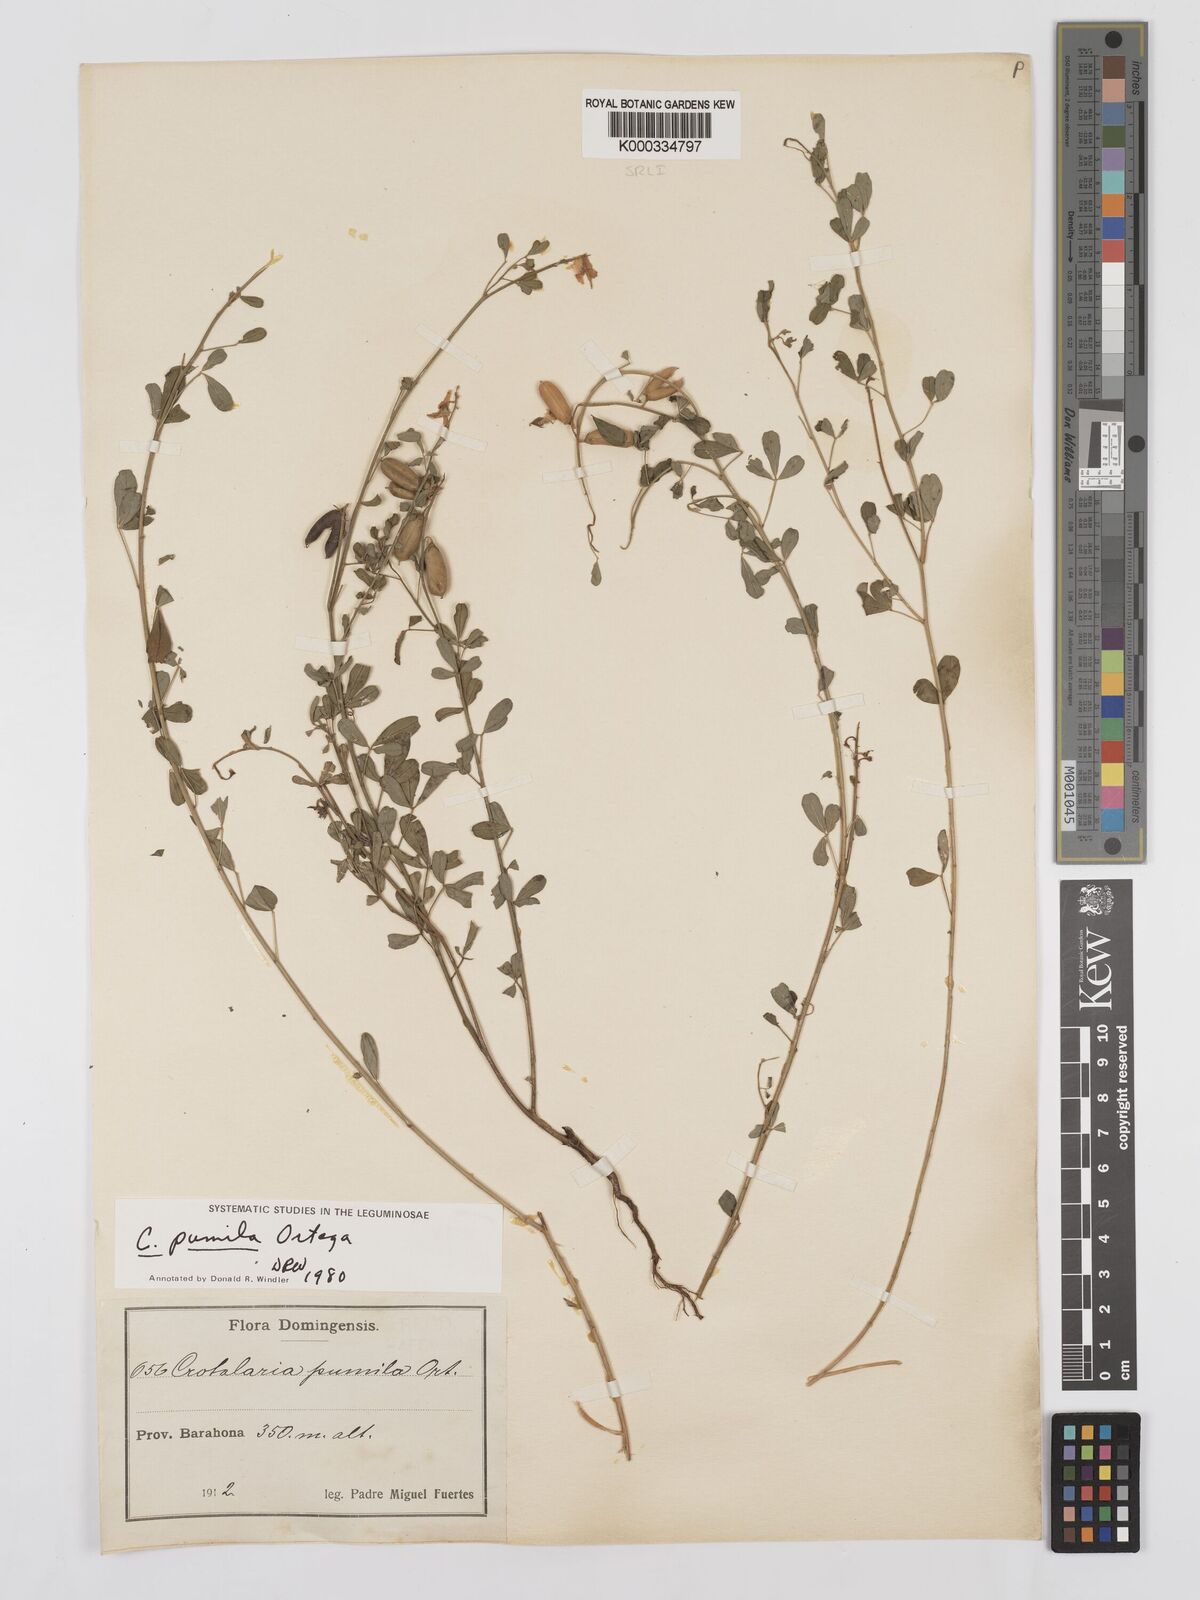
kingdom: Plantae
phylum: Tracheophyta
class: Magnoliopsida
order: Fabales
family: Fabaceae
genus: Crotalaria
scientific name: Crotalaria pumila
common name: Low rattlebox
